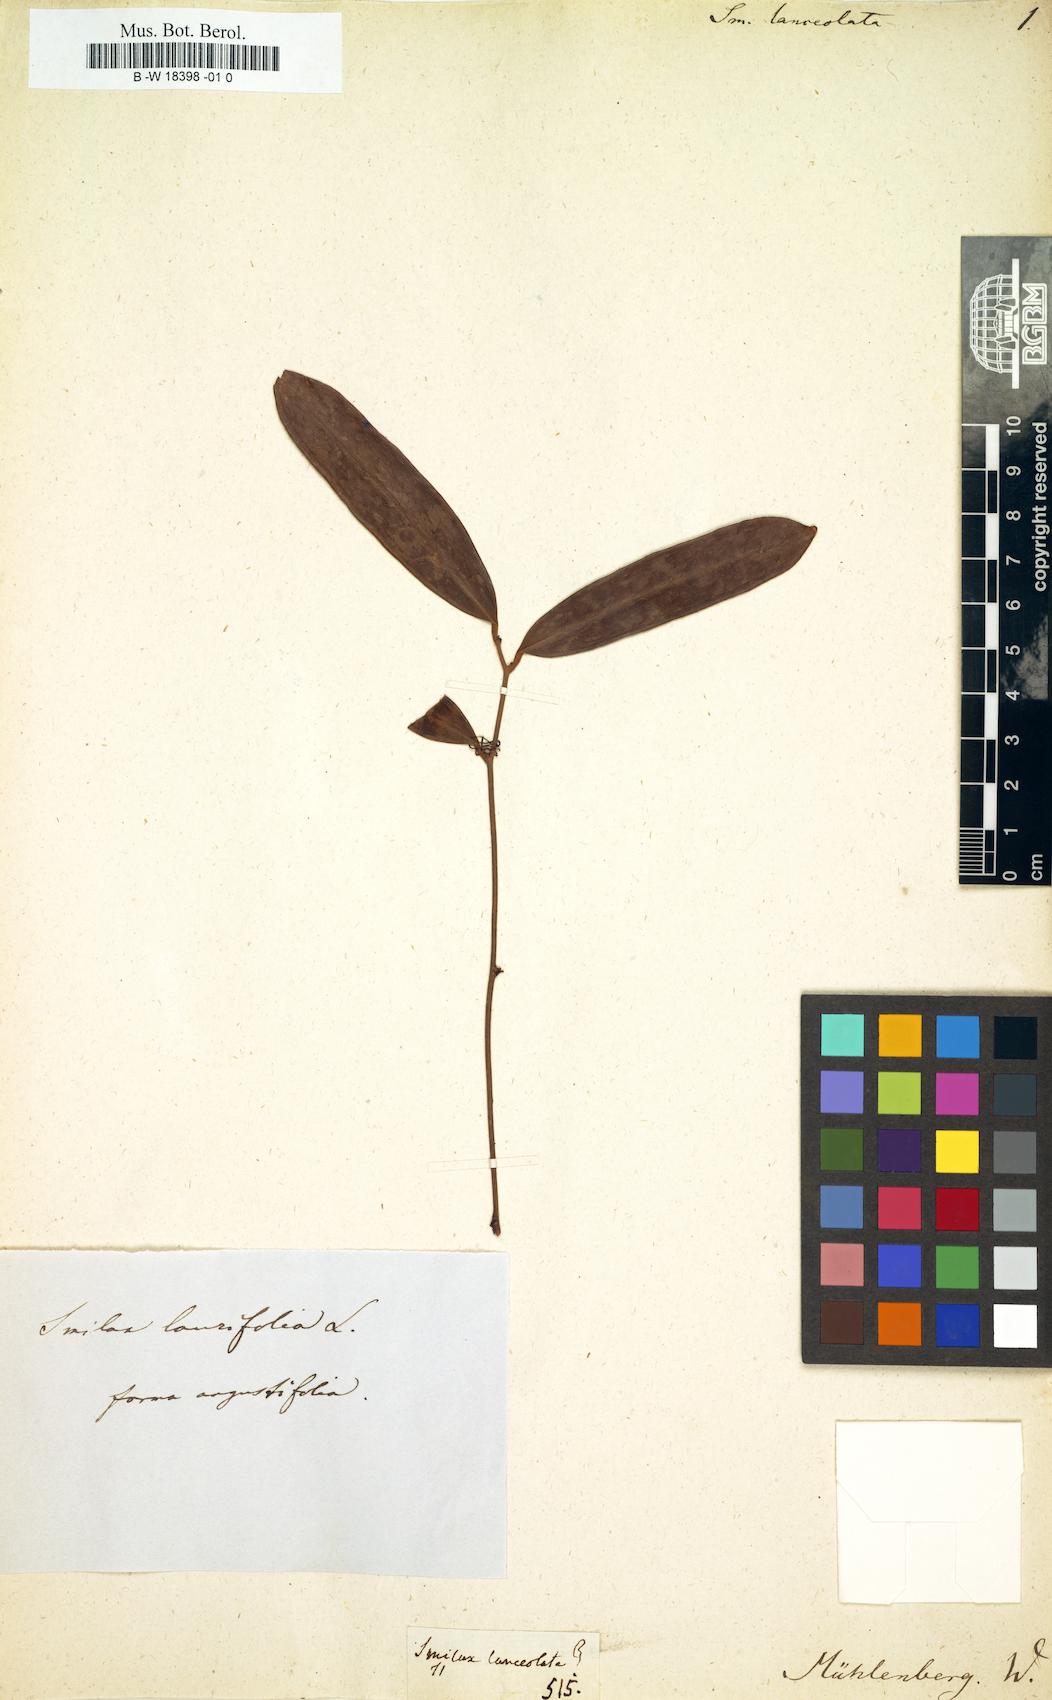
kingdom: Plantae
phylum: Tracheophyta
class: Liliopsida
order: Liliales
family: Smilacaceae
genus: Smilax
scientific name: Smilax laurifolia
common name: Bamboovine
